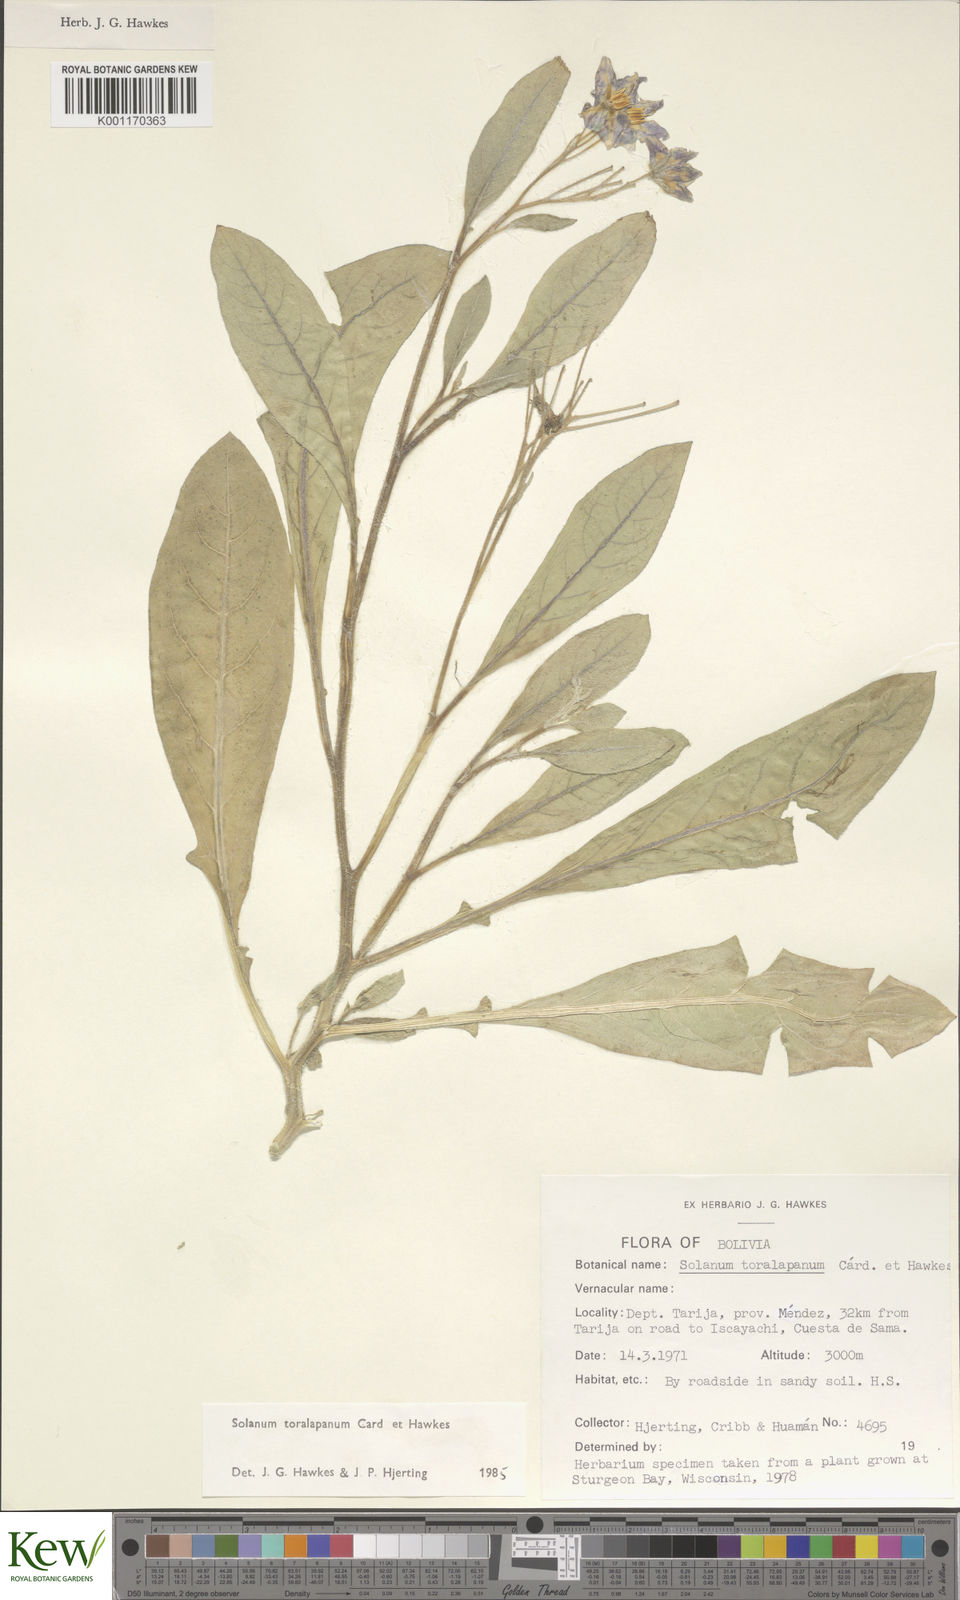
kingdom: Plantae
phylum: Tracheophyta
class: Magnoliopsida
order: Solanales
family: Solanaceae
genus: Solanum
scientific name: Solanum
